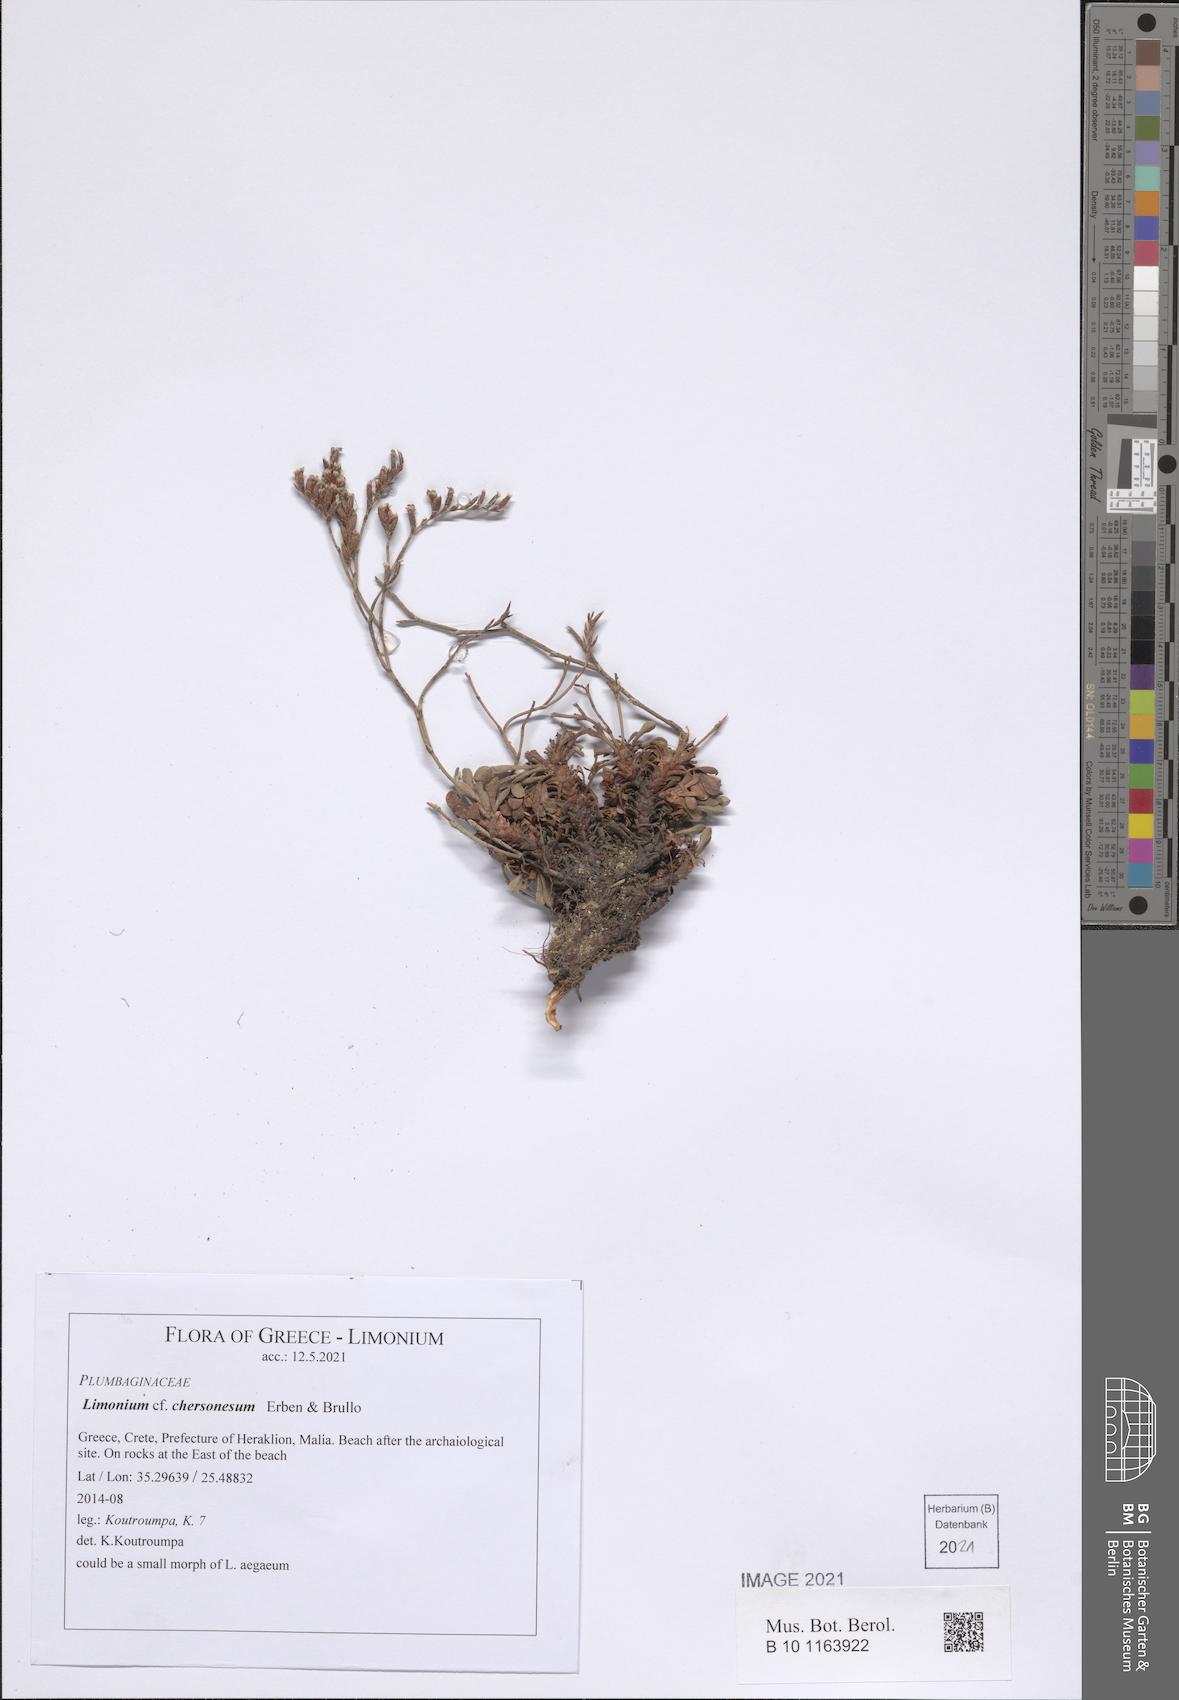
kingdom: Plantae
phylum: Tracheophyta
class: Magnoliopsida
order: Caryophyllales
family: Plumbaginaceae
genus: Limonium
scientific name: Limonium chersonesum
